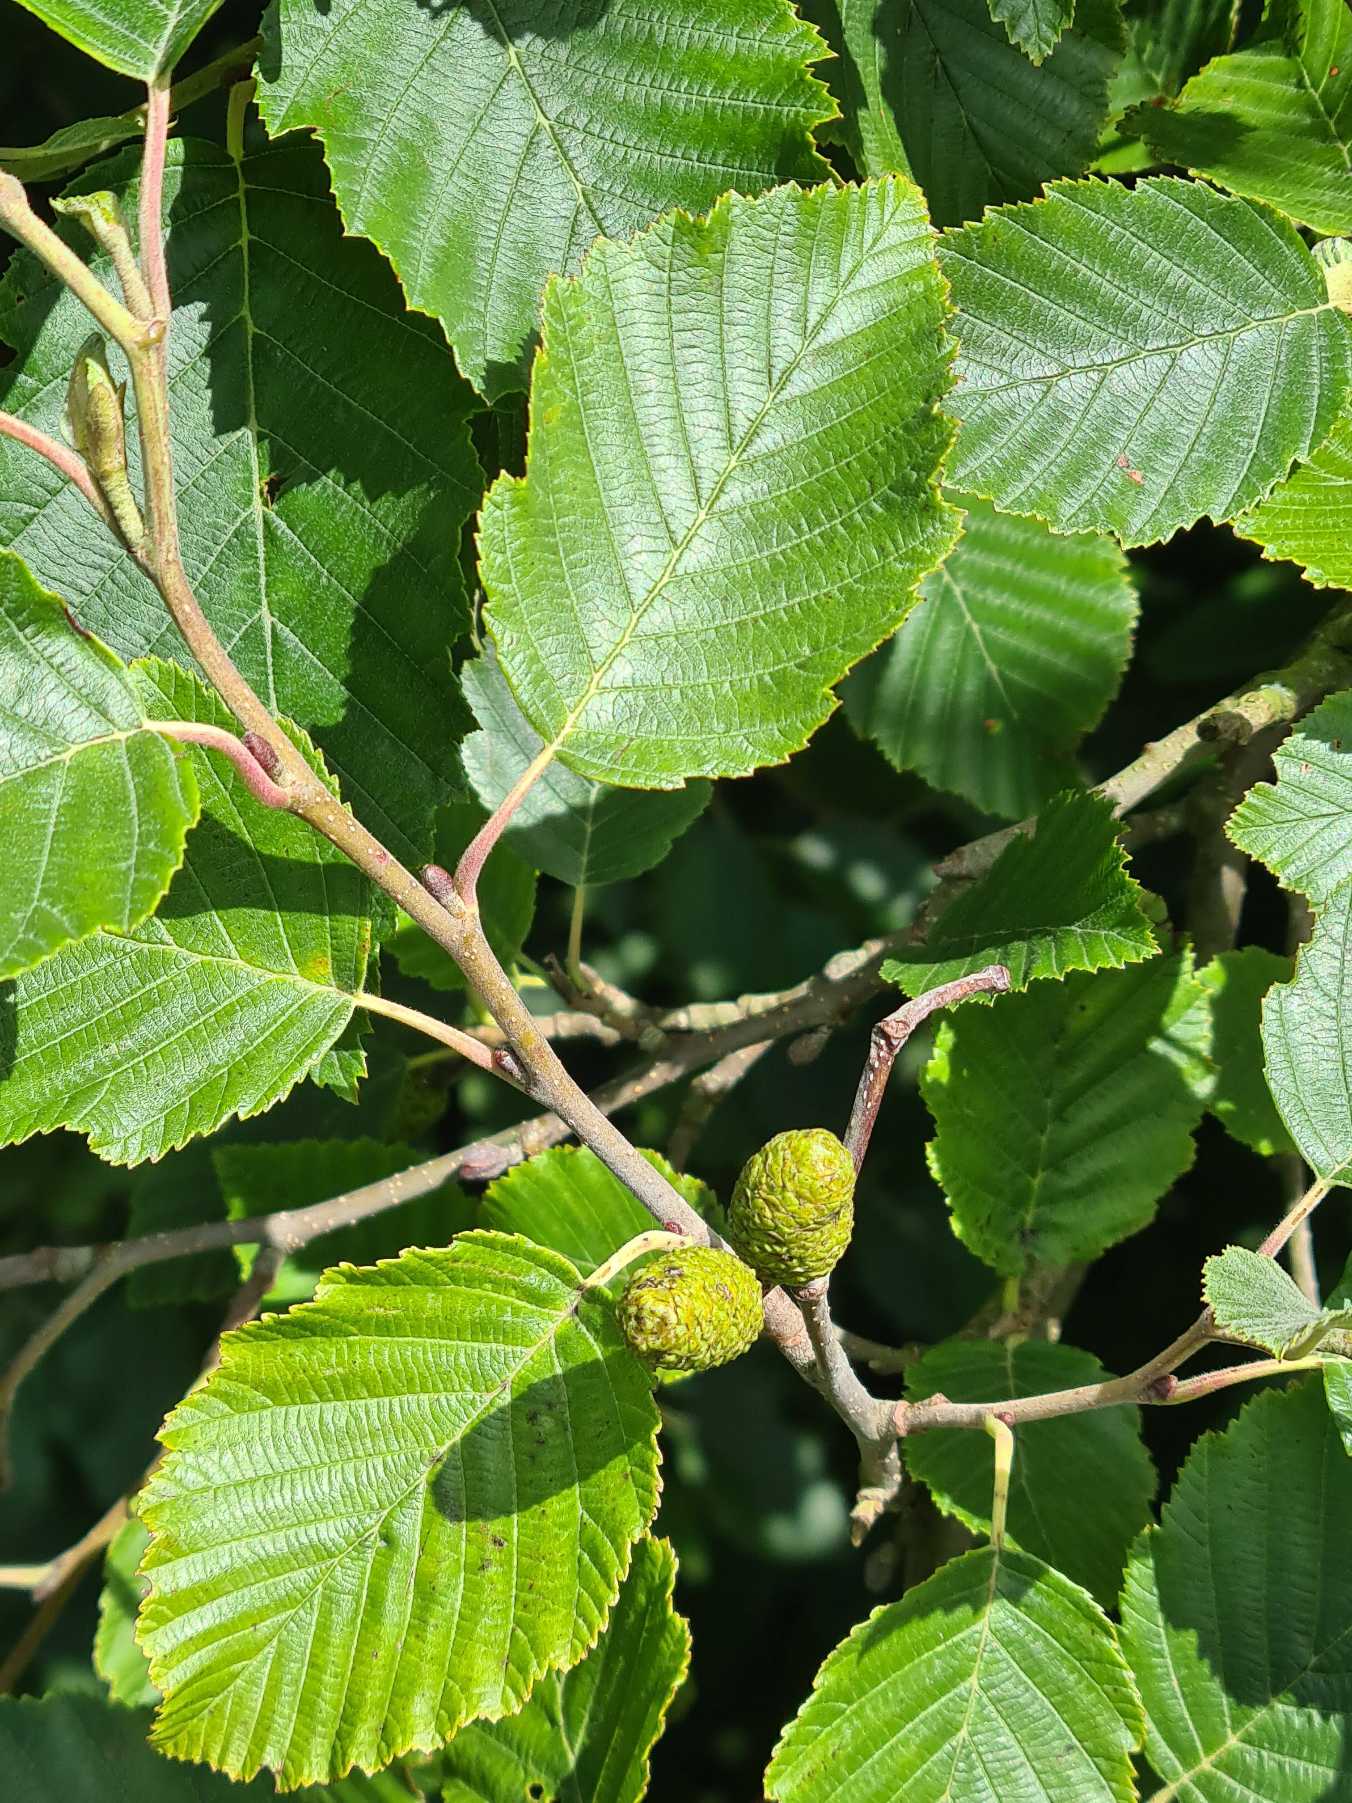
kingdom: Plantae
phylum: Tracheophyta
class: Magnoliopsida
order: Fagales
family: Betulaceae
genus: Alnus
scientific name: Alnus incana
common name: Grå-el/hvid-el
